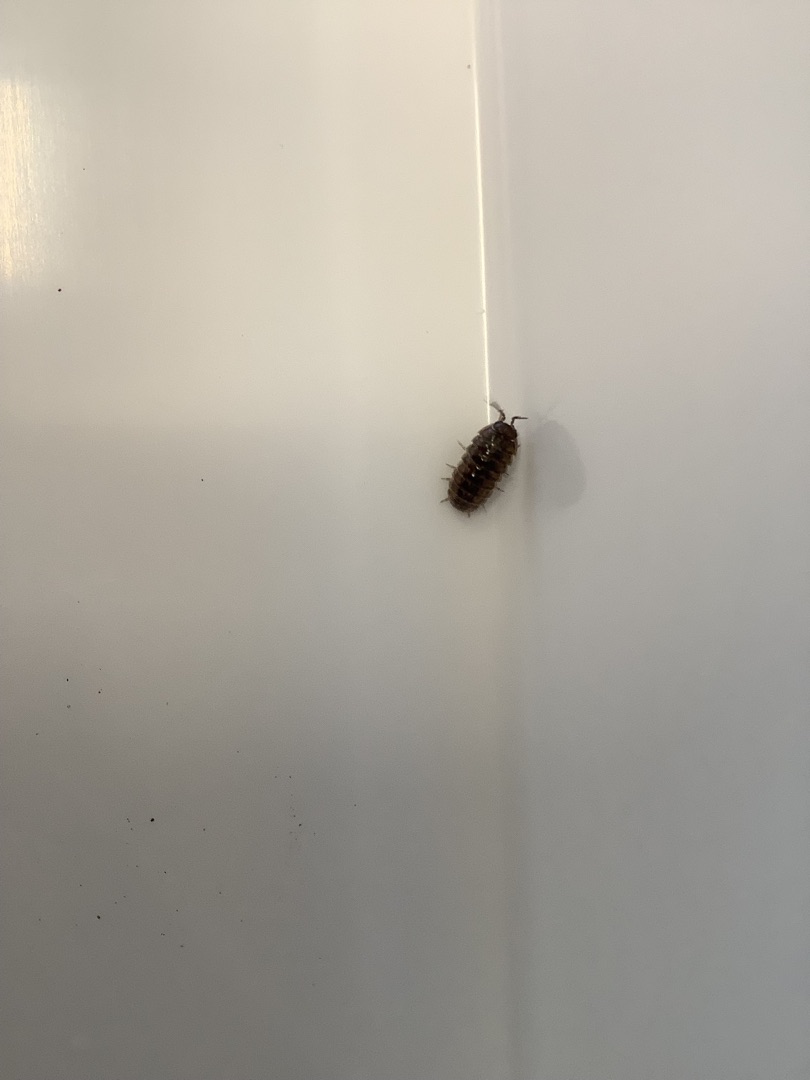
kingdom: Animalia
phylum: Arthropoda
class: Malacostraca
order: Isopoda
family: Armadillidiidae
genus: Armadillidium
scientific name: Armadillidium vulgare
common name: Almindelig kuglebænkebider
